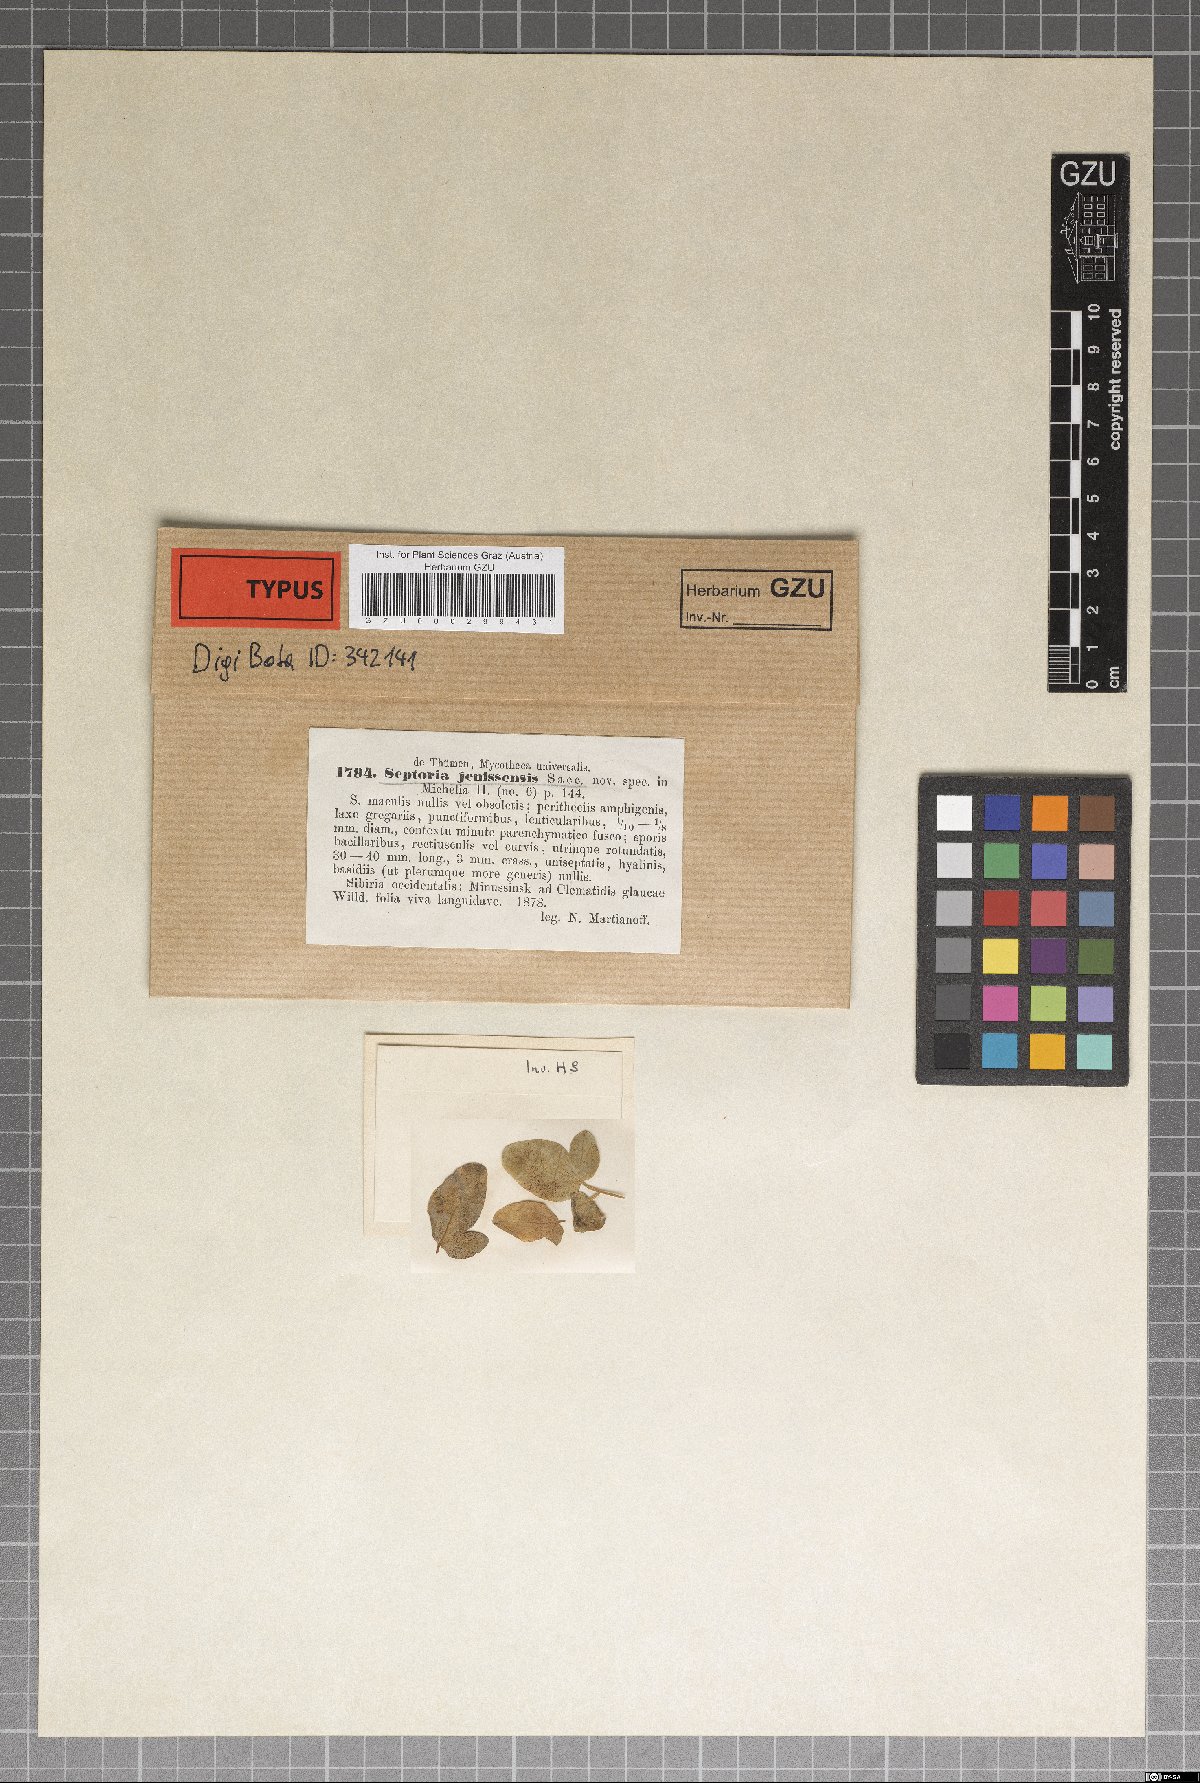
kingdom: Fungi
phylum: Ascomycota
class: Dothideomycetes
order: Mycosphaerellales
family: Mycosphaerellaceae
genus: Septoria
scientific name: Septoria
